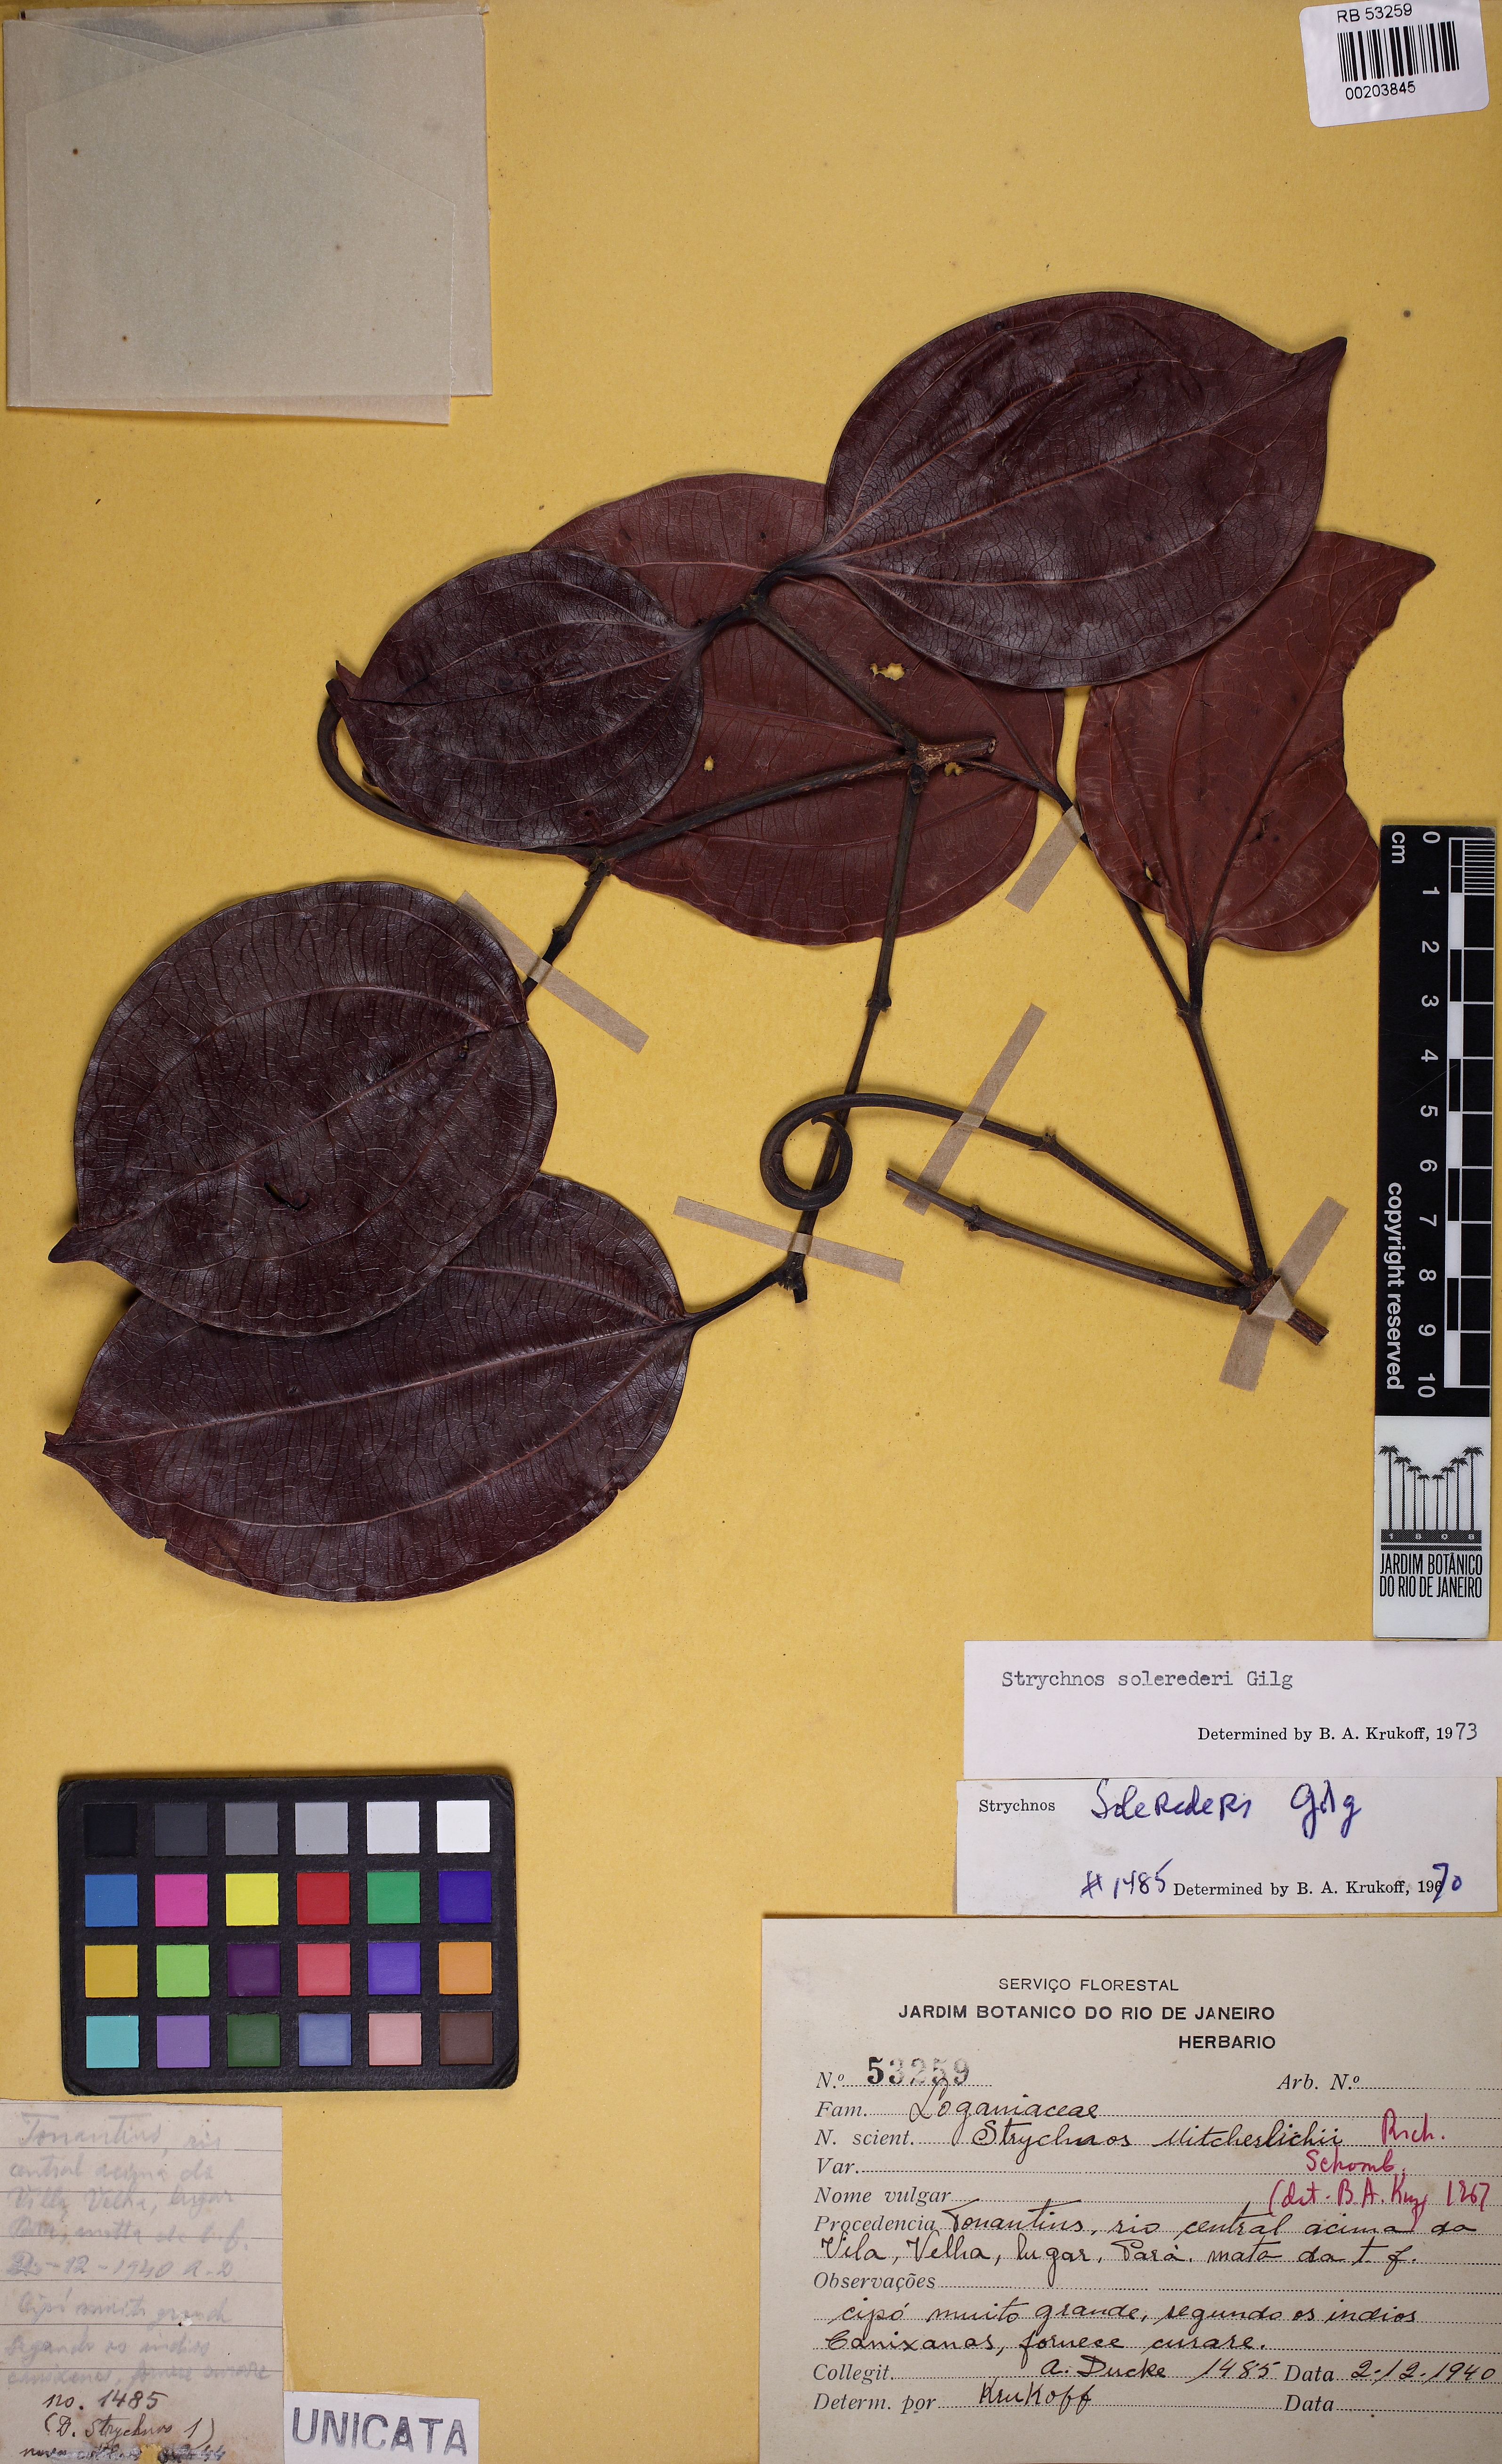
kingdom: Plantae
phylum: Tracheophyta
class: Magnoliopsida
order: Gentianales
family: Loganiaceae
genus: Strychnos
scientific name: Strychnos solerederi
